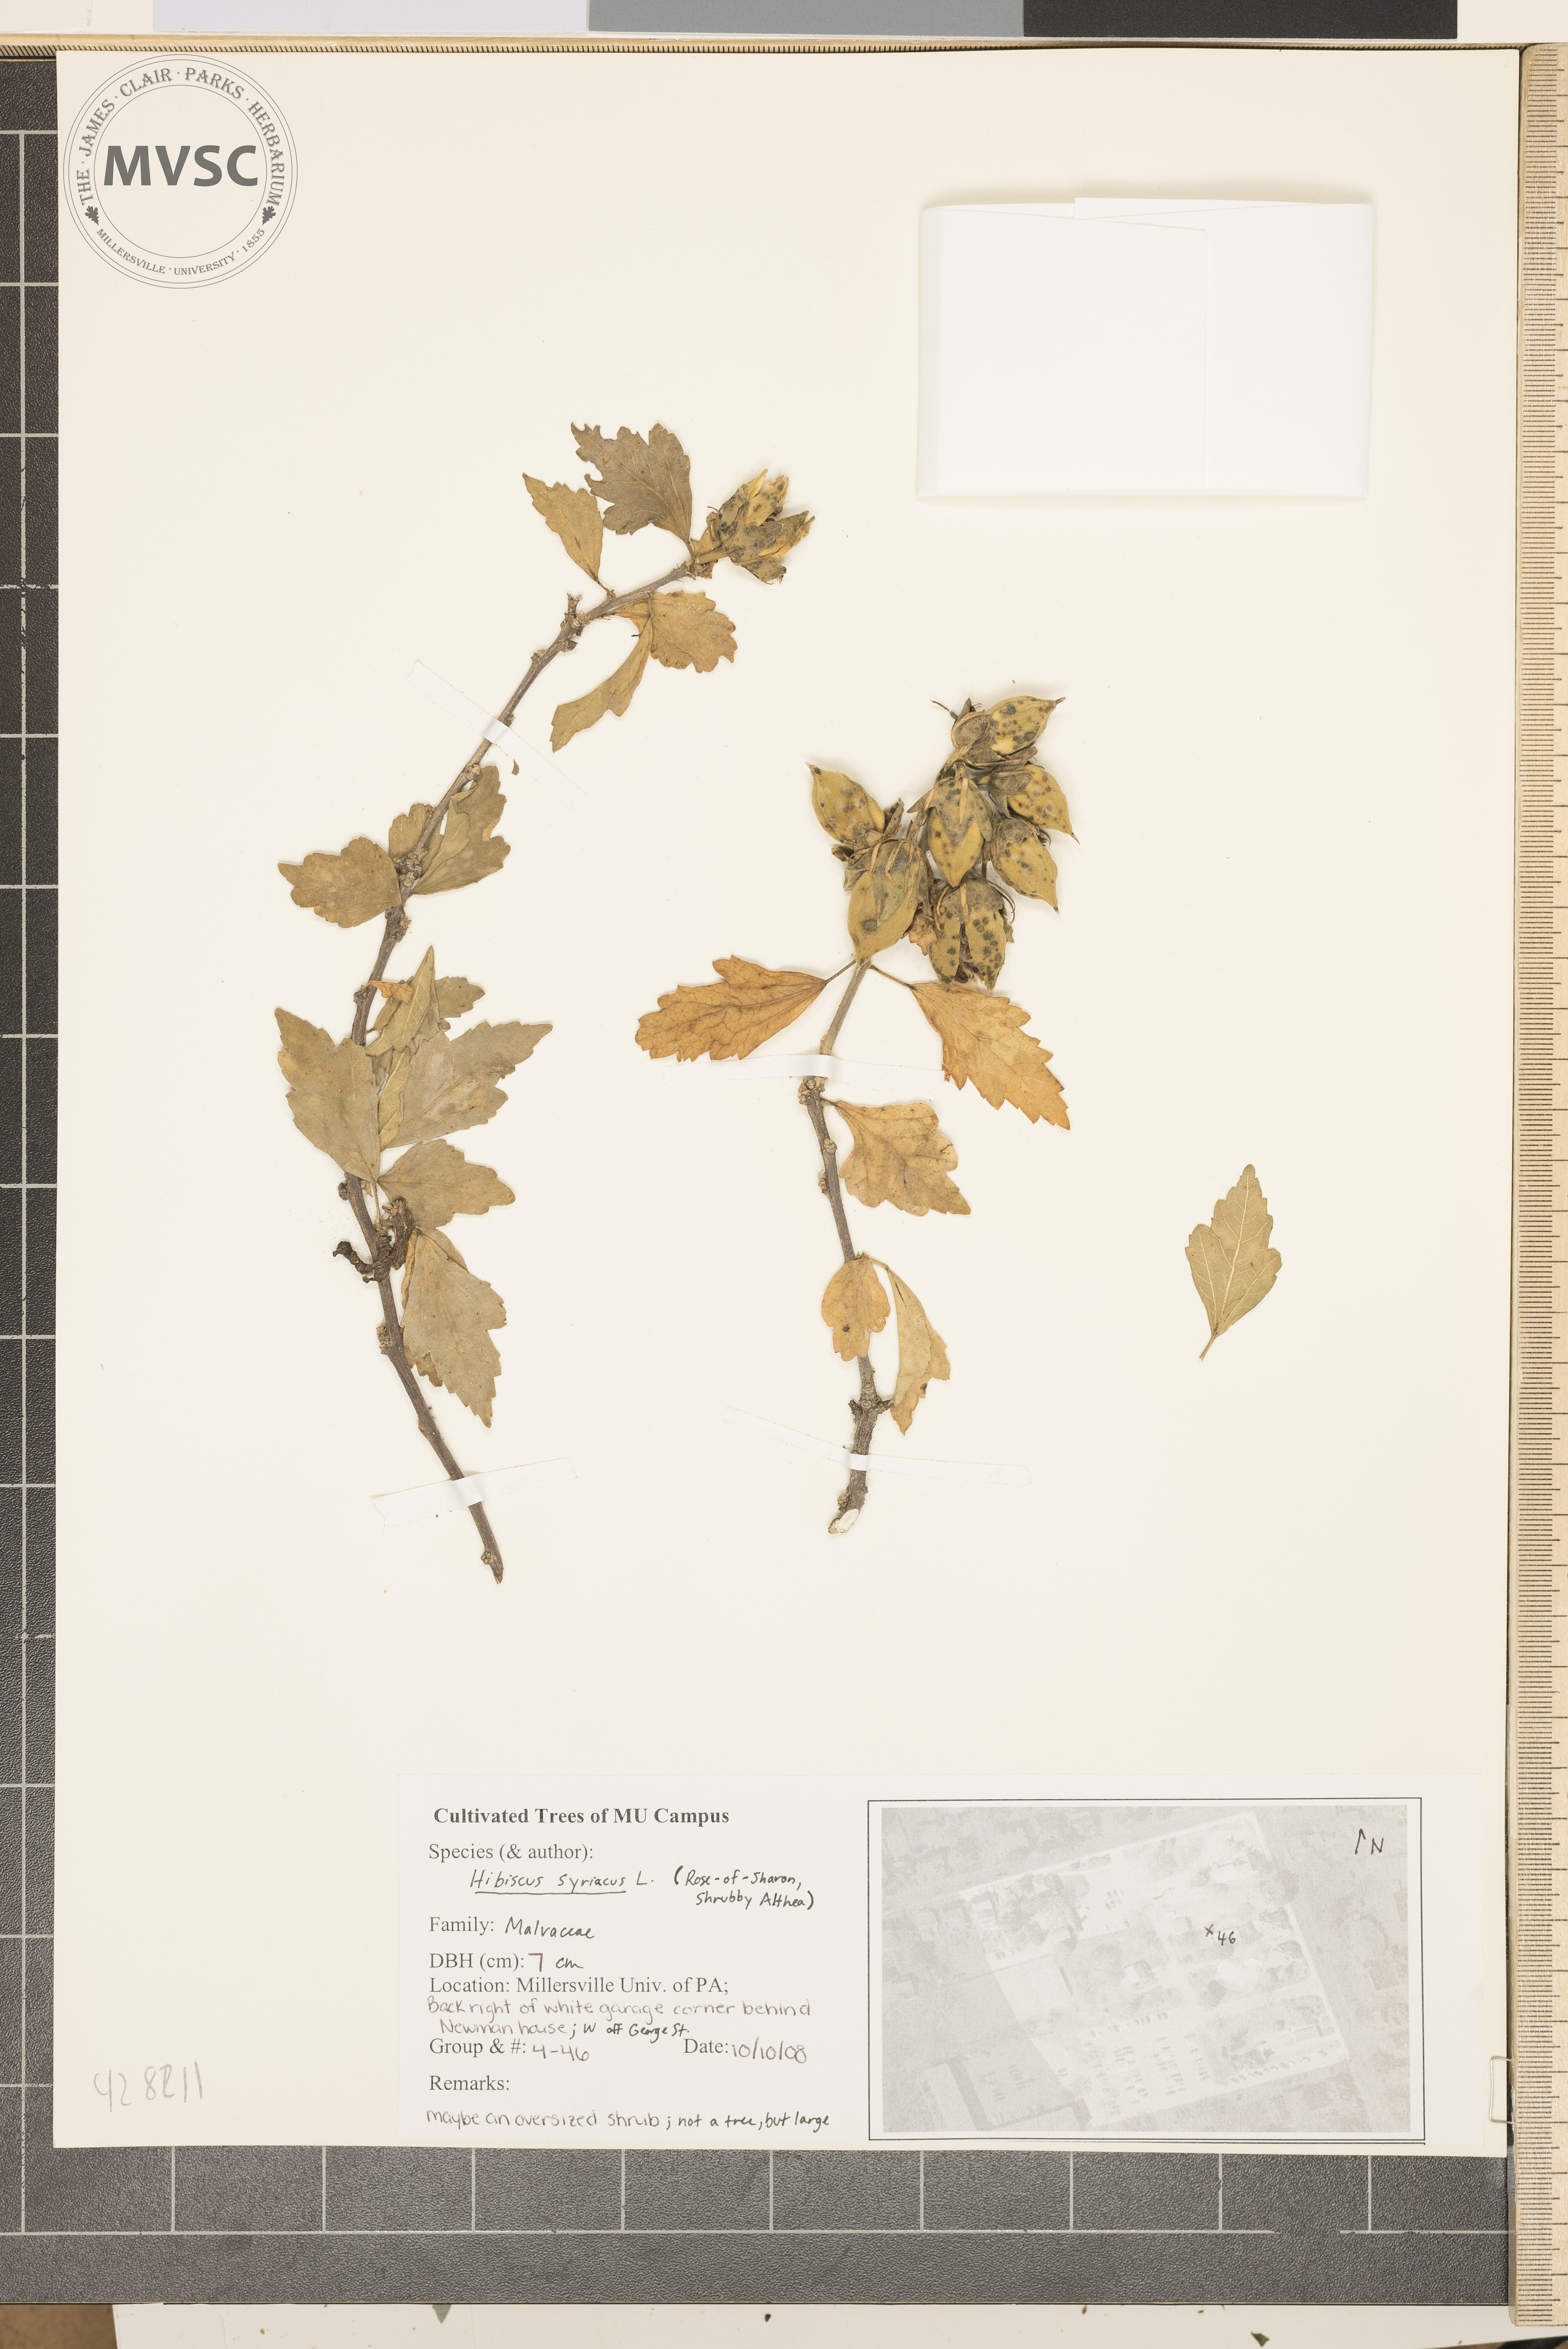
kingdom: Plantae
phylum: Tracheophyta
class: Magnoliopsida
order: Malvales
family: Malvaceae
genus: Hibiscus
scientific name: Hibiscus syriacus
